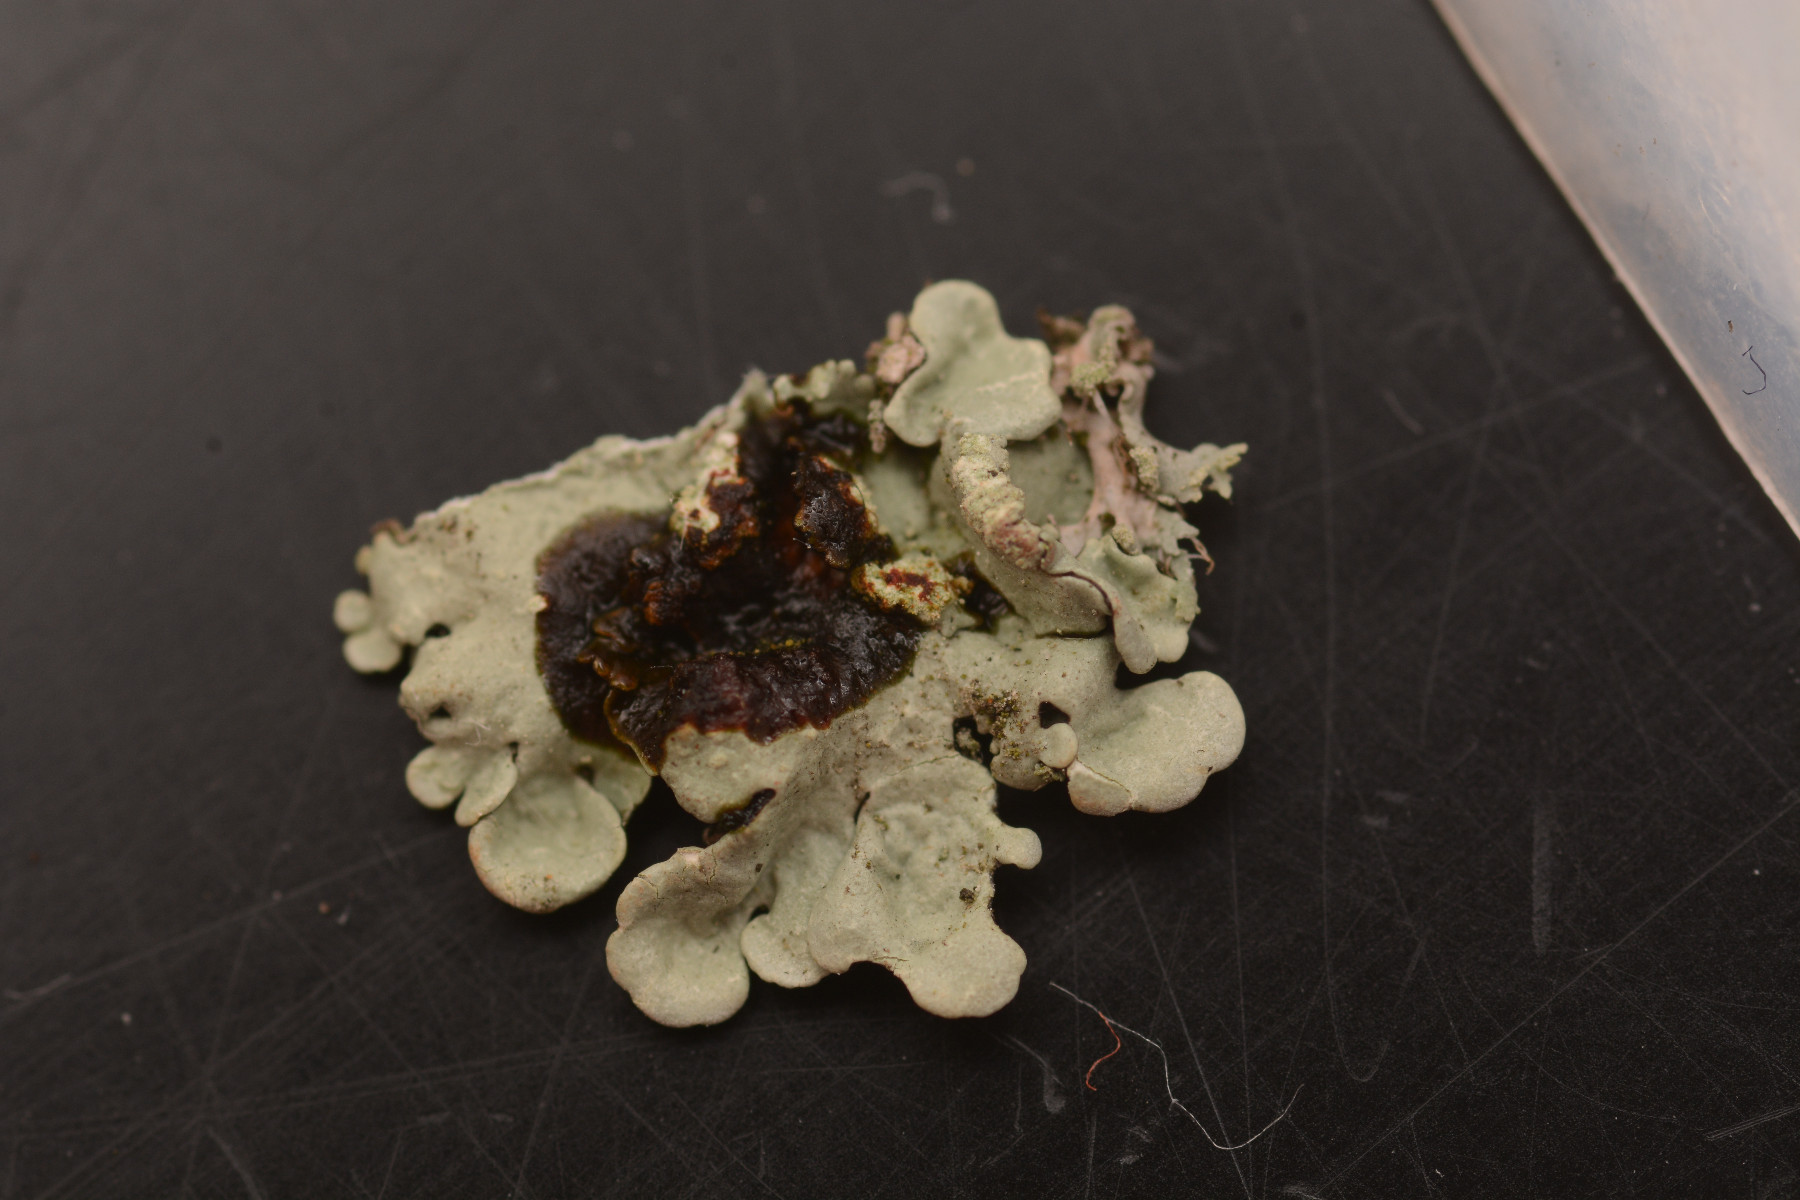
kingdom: Fungi
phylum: Ascomycota
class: Lecanoromycetes
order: Lecanorales
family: Parmeliaceae
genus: Flavoparmelia
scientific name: Flavoparmelia soredians
